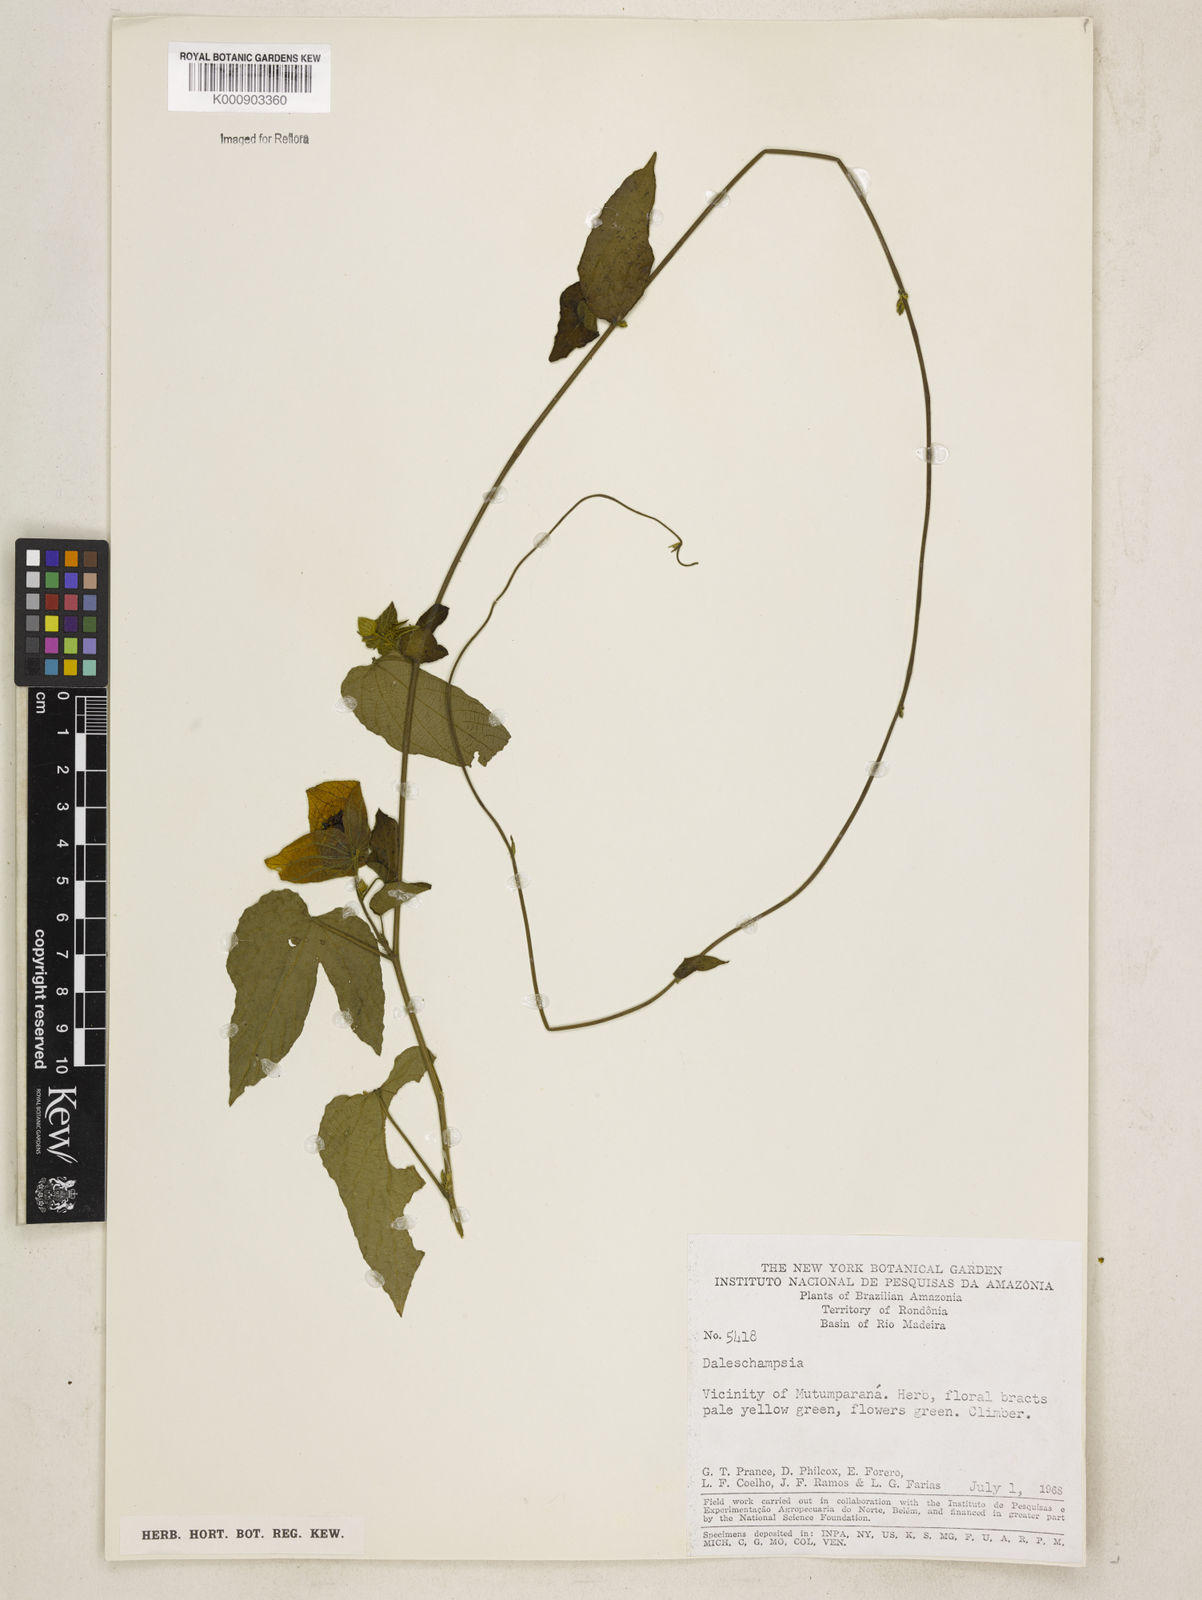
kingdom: Plantae
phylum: Tracheophyta
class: Magnoliopsida
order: Malpighiales
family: Euphorbiaceae
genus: Dalechampia
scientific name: Dalechampia
